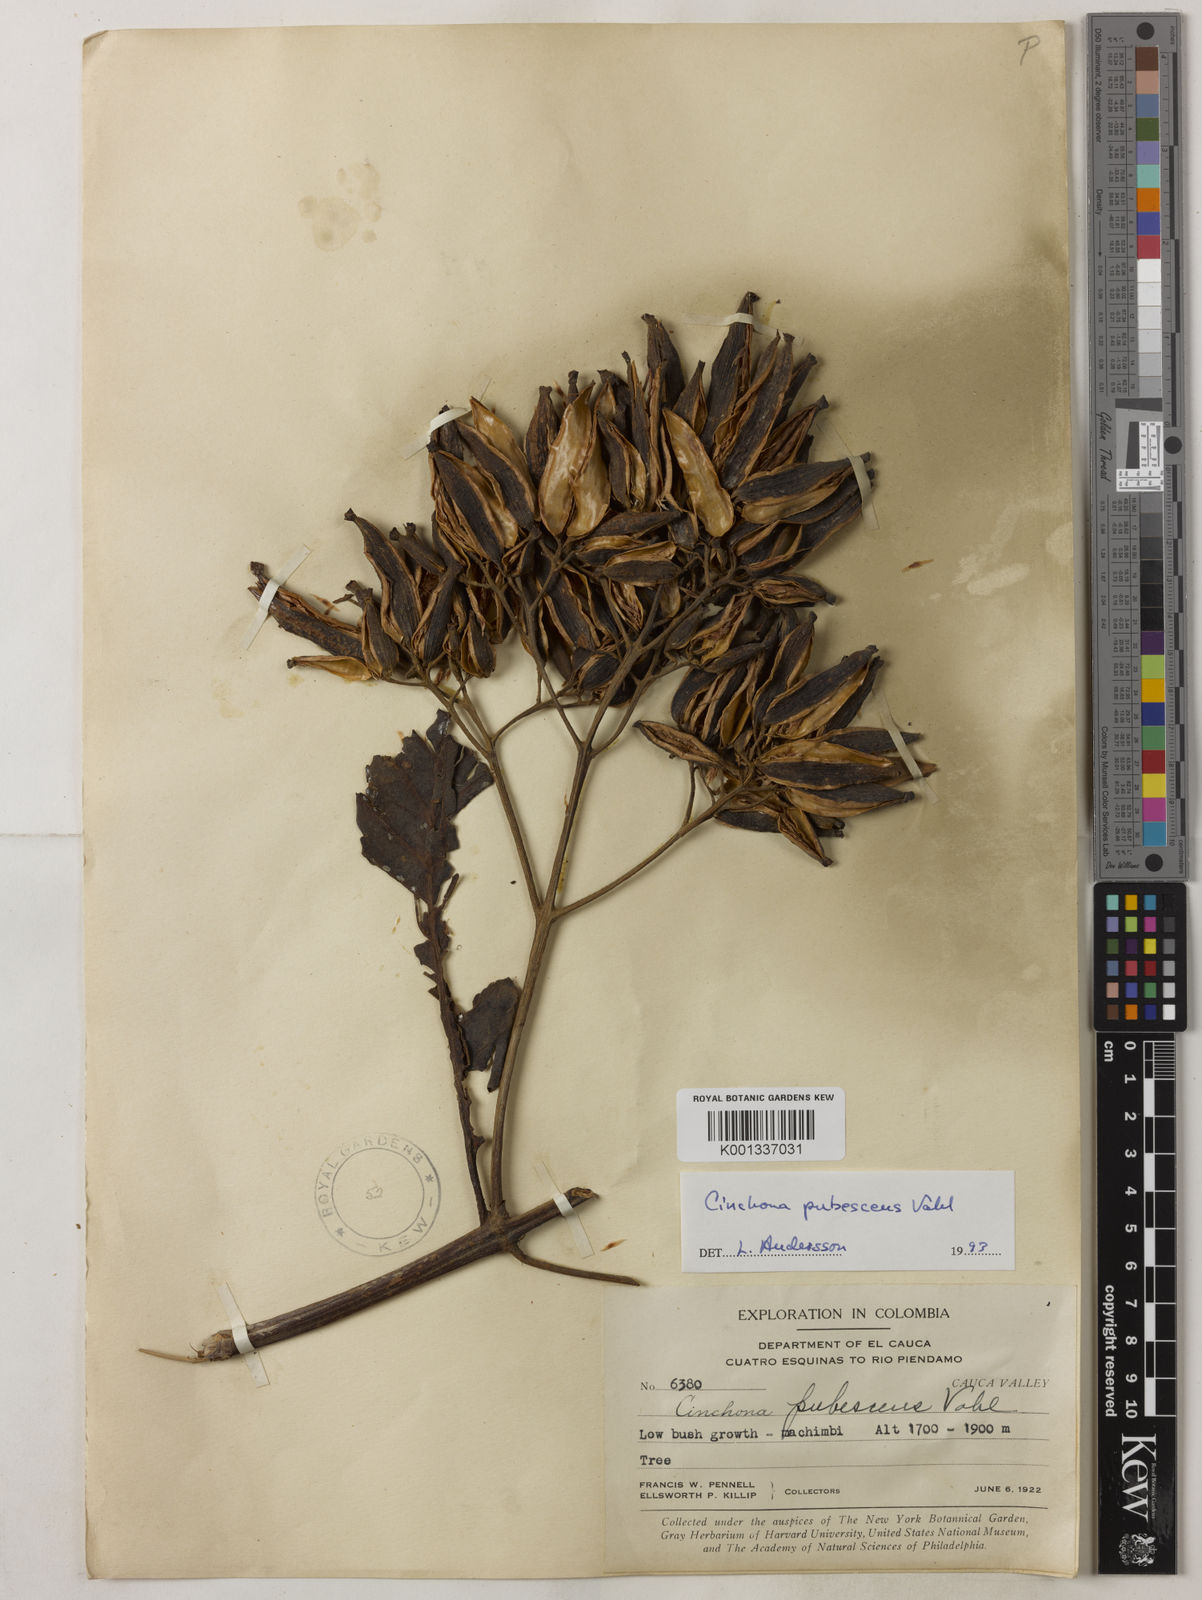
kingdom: Plantae
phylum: Tracheophyta
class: Magnoliopsida
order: Gentianales
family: Rubiaceae
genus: Cinchona
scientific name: Cinchona pubescens
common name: Quinine
